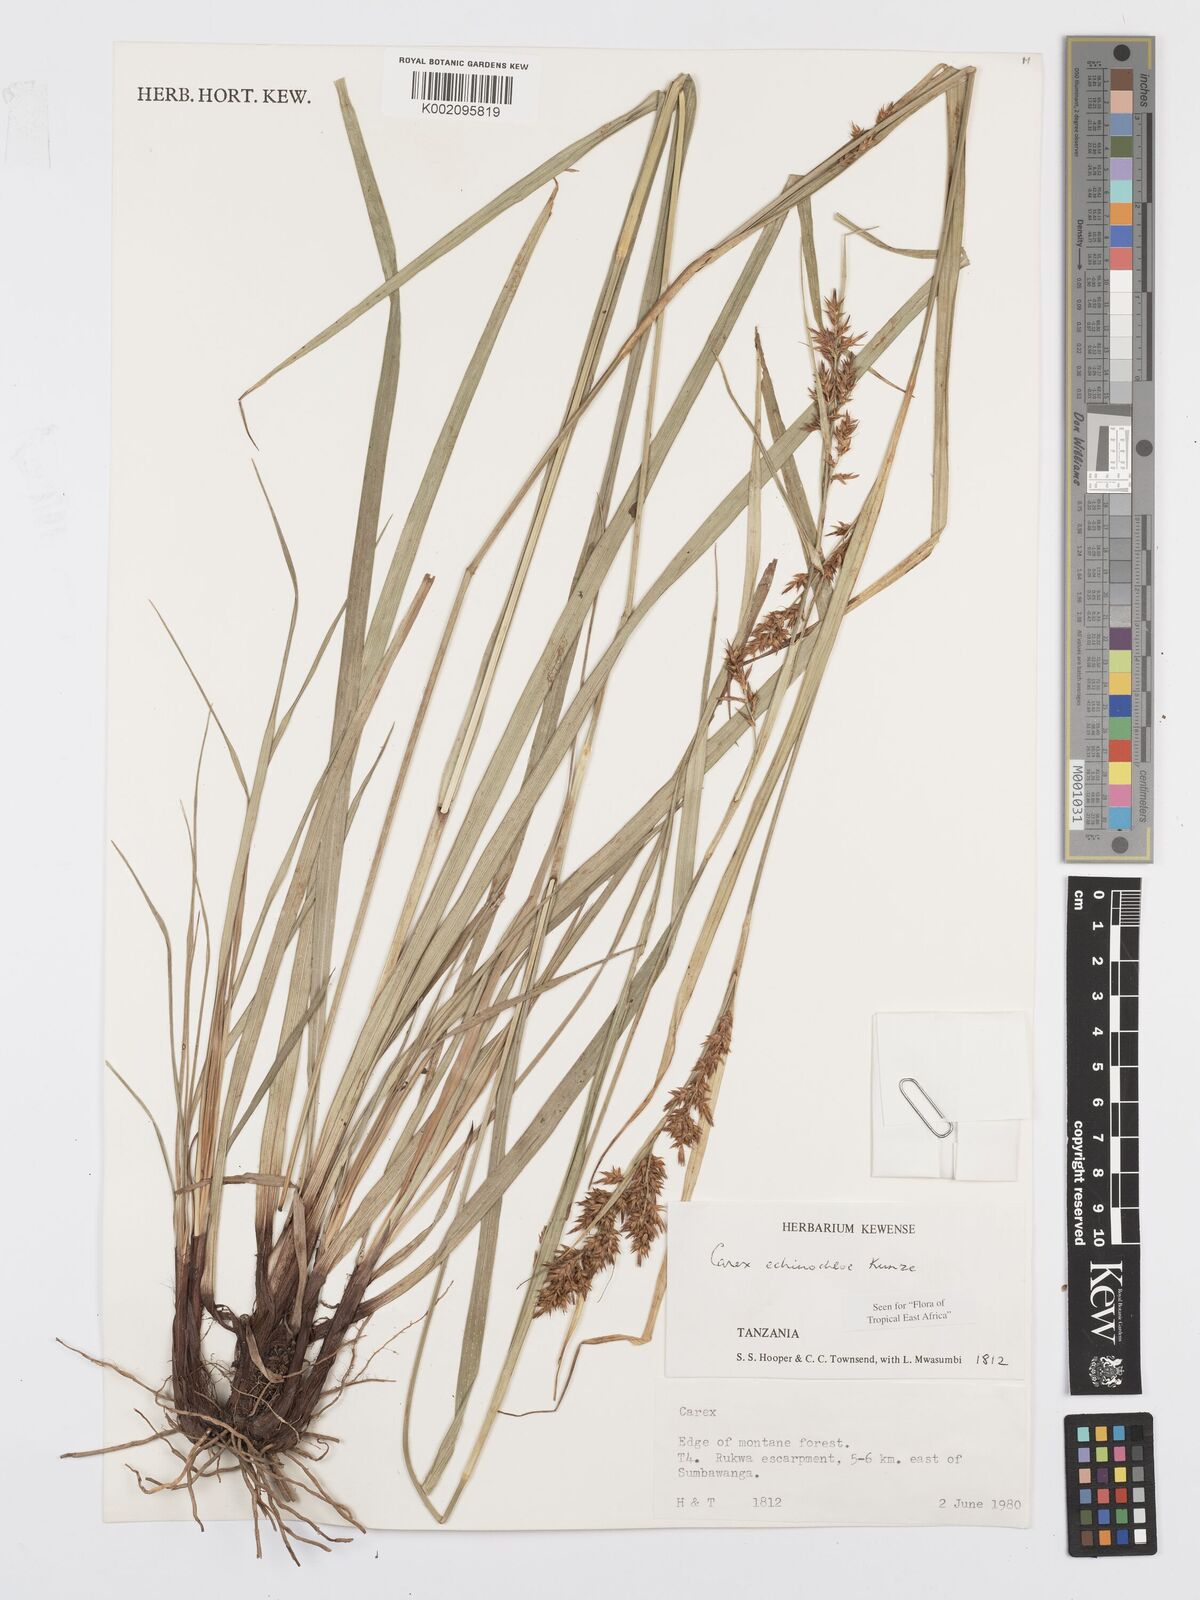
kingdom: Plantae
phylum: Tracheophyta
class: Liliopsida
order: Poales
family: Cyperaceae
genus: Carex
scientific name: Carex
